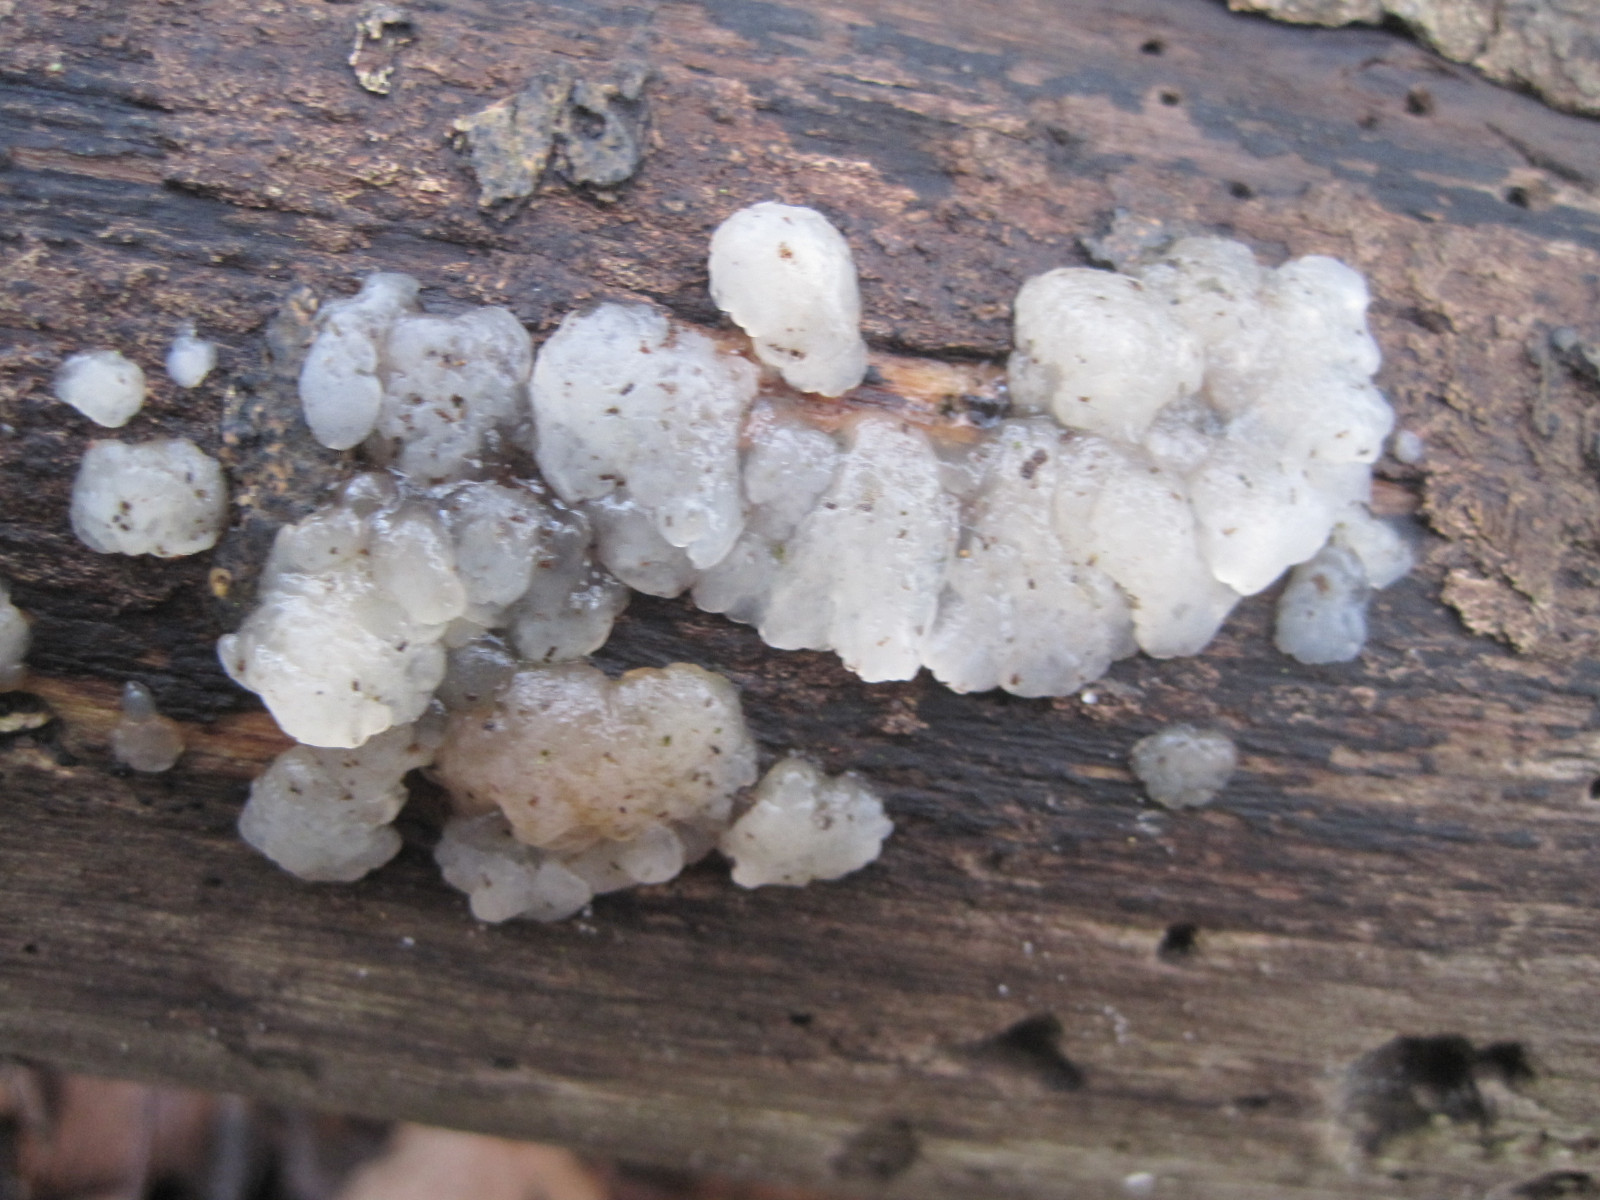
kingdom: Fungi
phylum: Basidiomycota
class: Agaricomycetes
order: Auriculariales
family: Hyaloriaceae
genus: Myxarium
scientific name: Myxarium nucleatum
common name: klar bævretop
